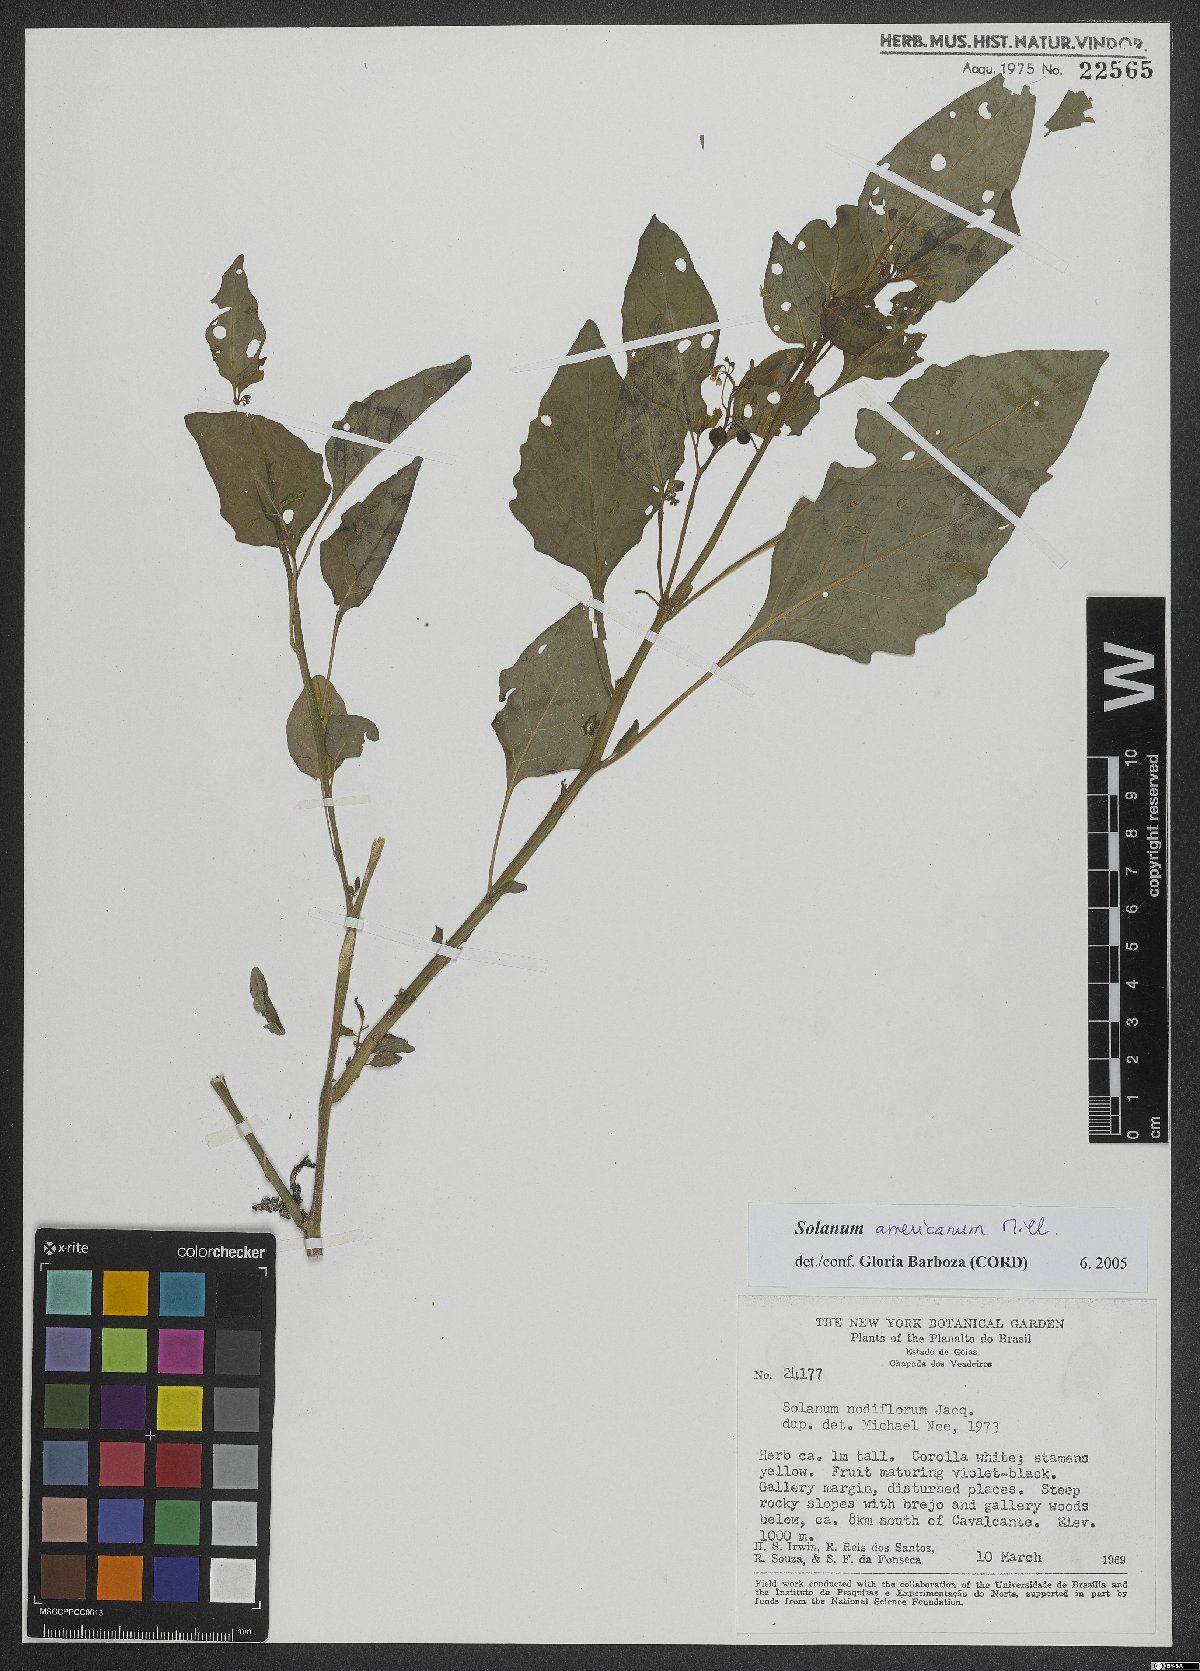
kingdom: Plantae
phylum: Tracheophyta
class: Magnoliopsida
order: Solanales
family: Solanaceae
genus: Solanum
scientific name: Solanum americanum
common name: American black nightshade
